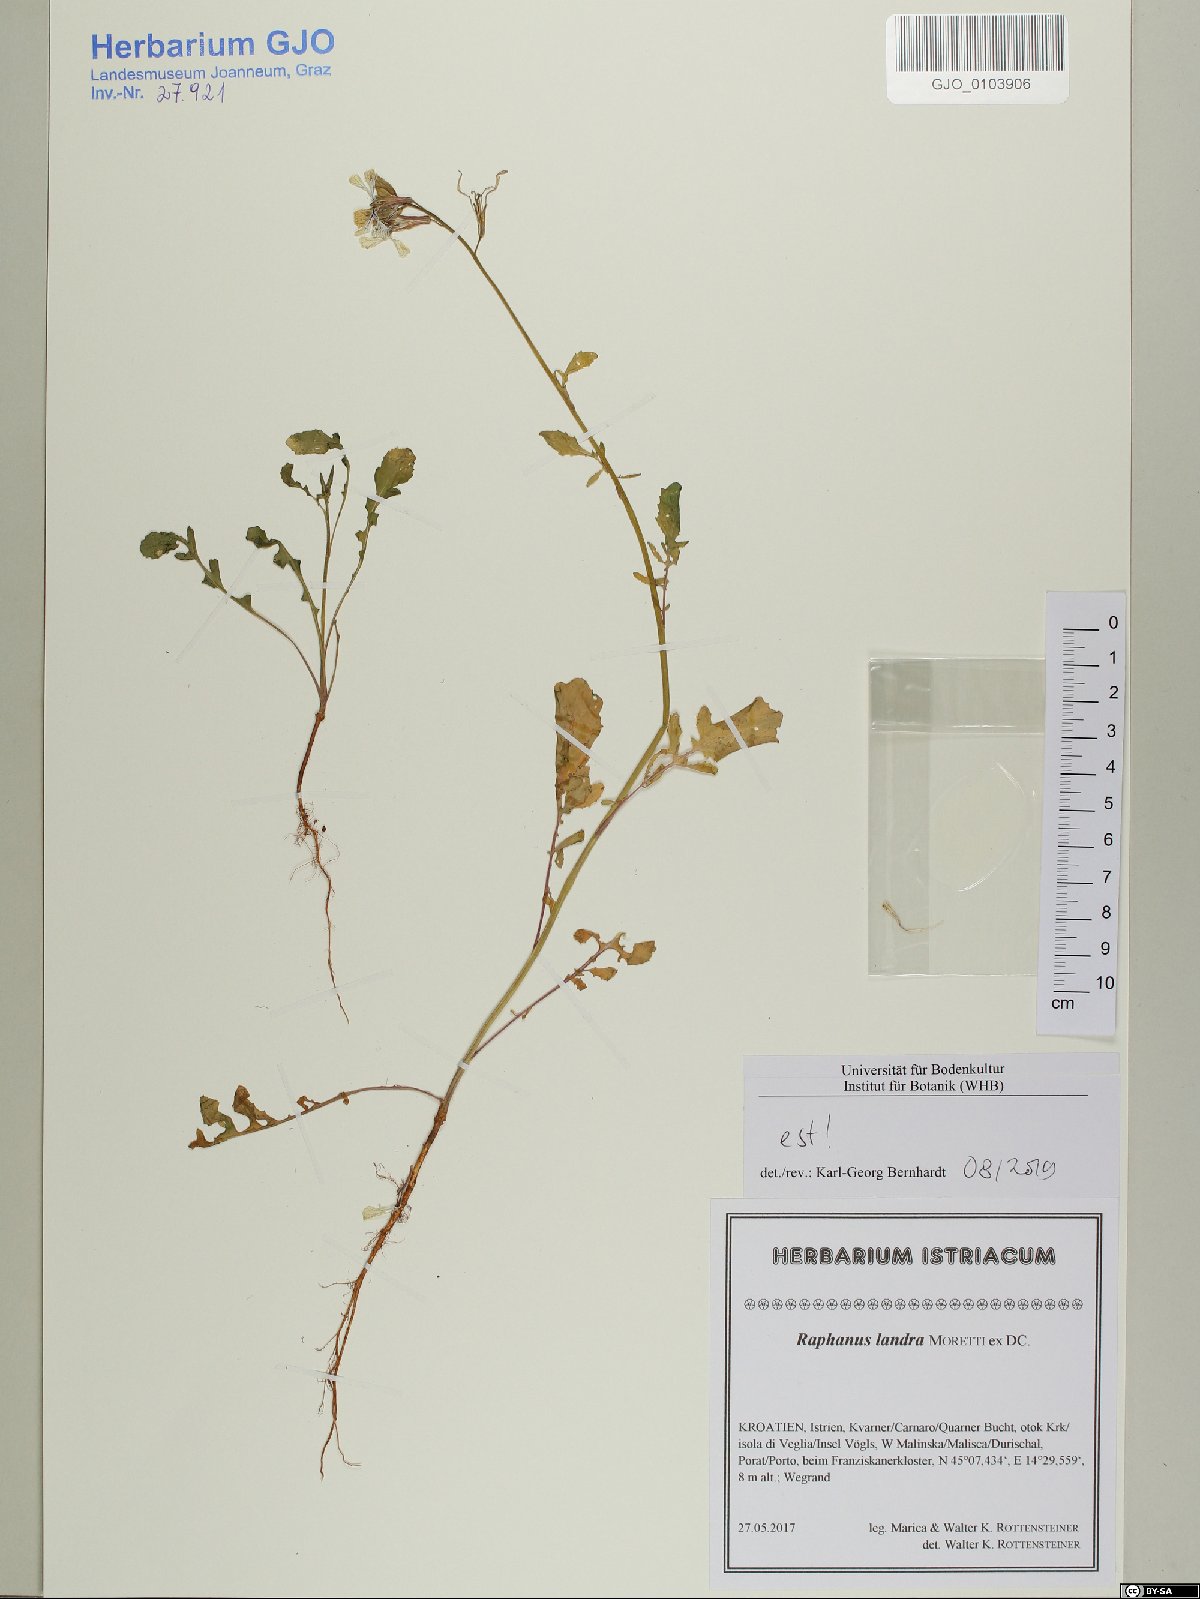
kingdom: Plantae
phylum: Tracheophyta
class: Magnoliopsida
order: Brassicales
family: Brassicaceae
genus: Raphanus
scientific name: Raphanus raphanistrum
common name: Wild radish
